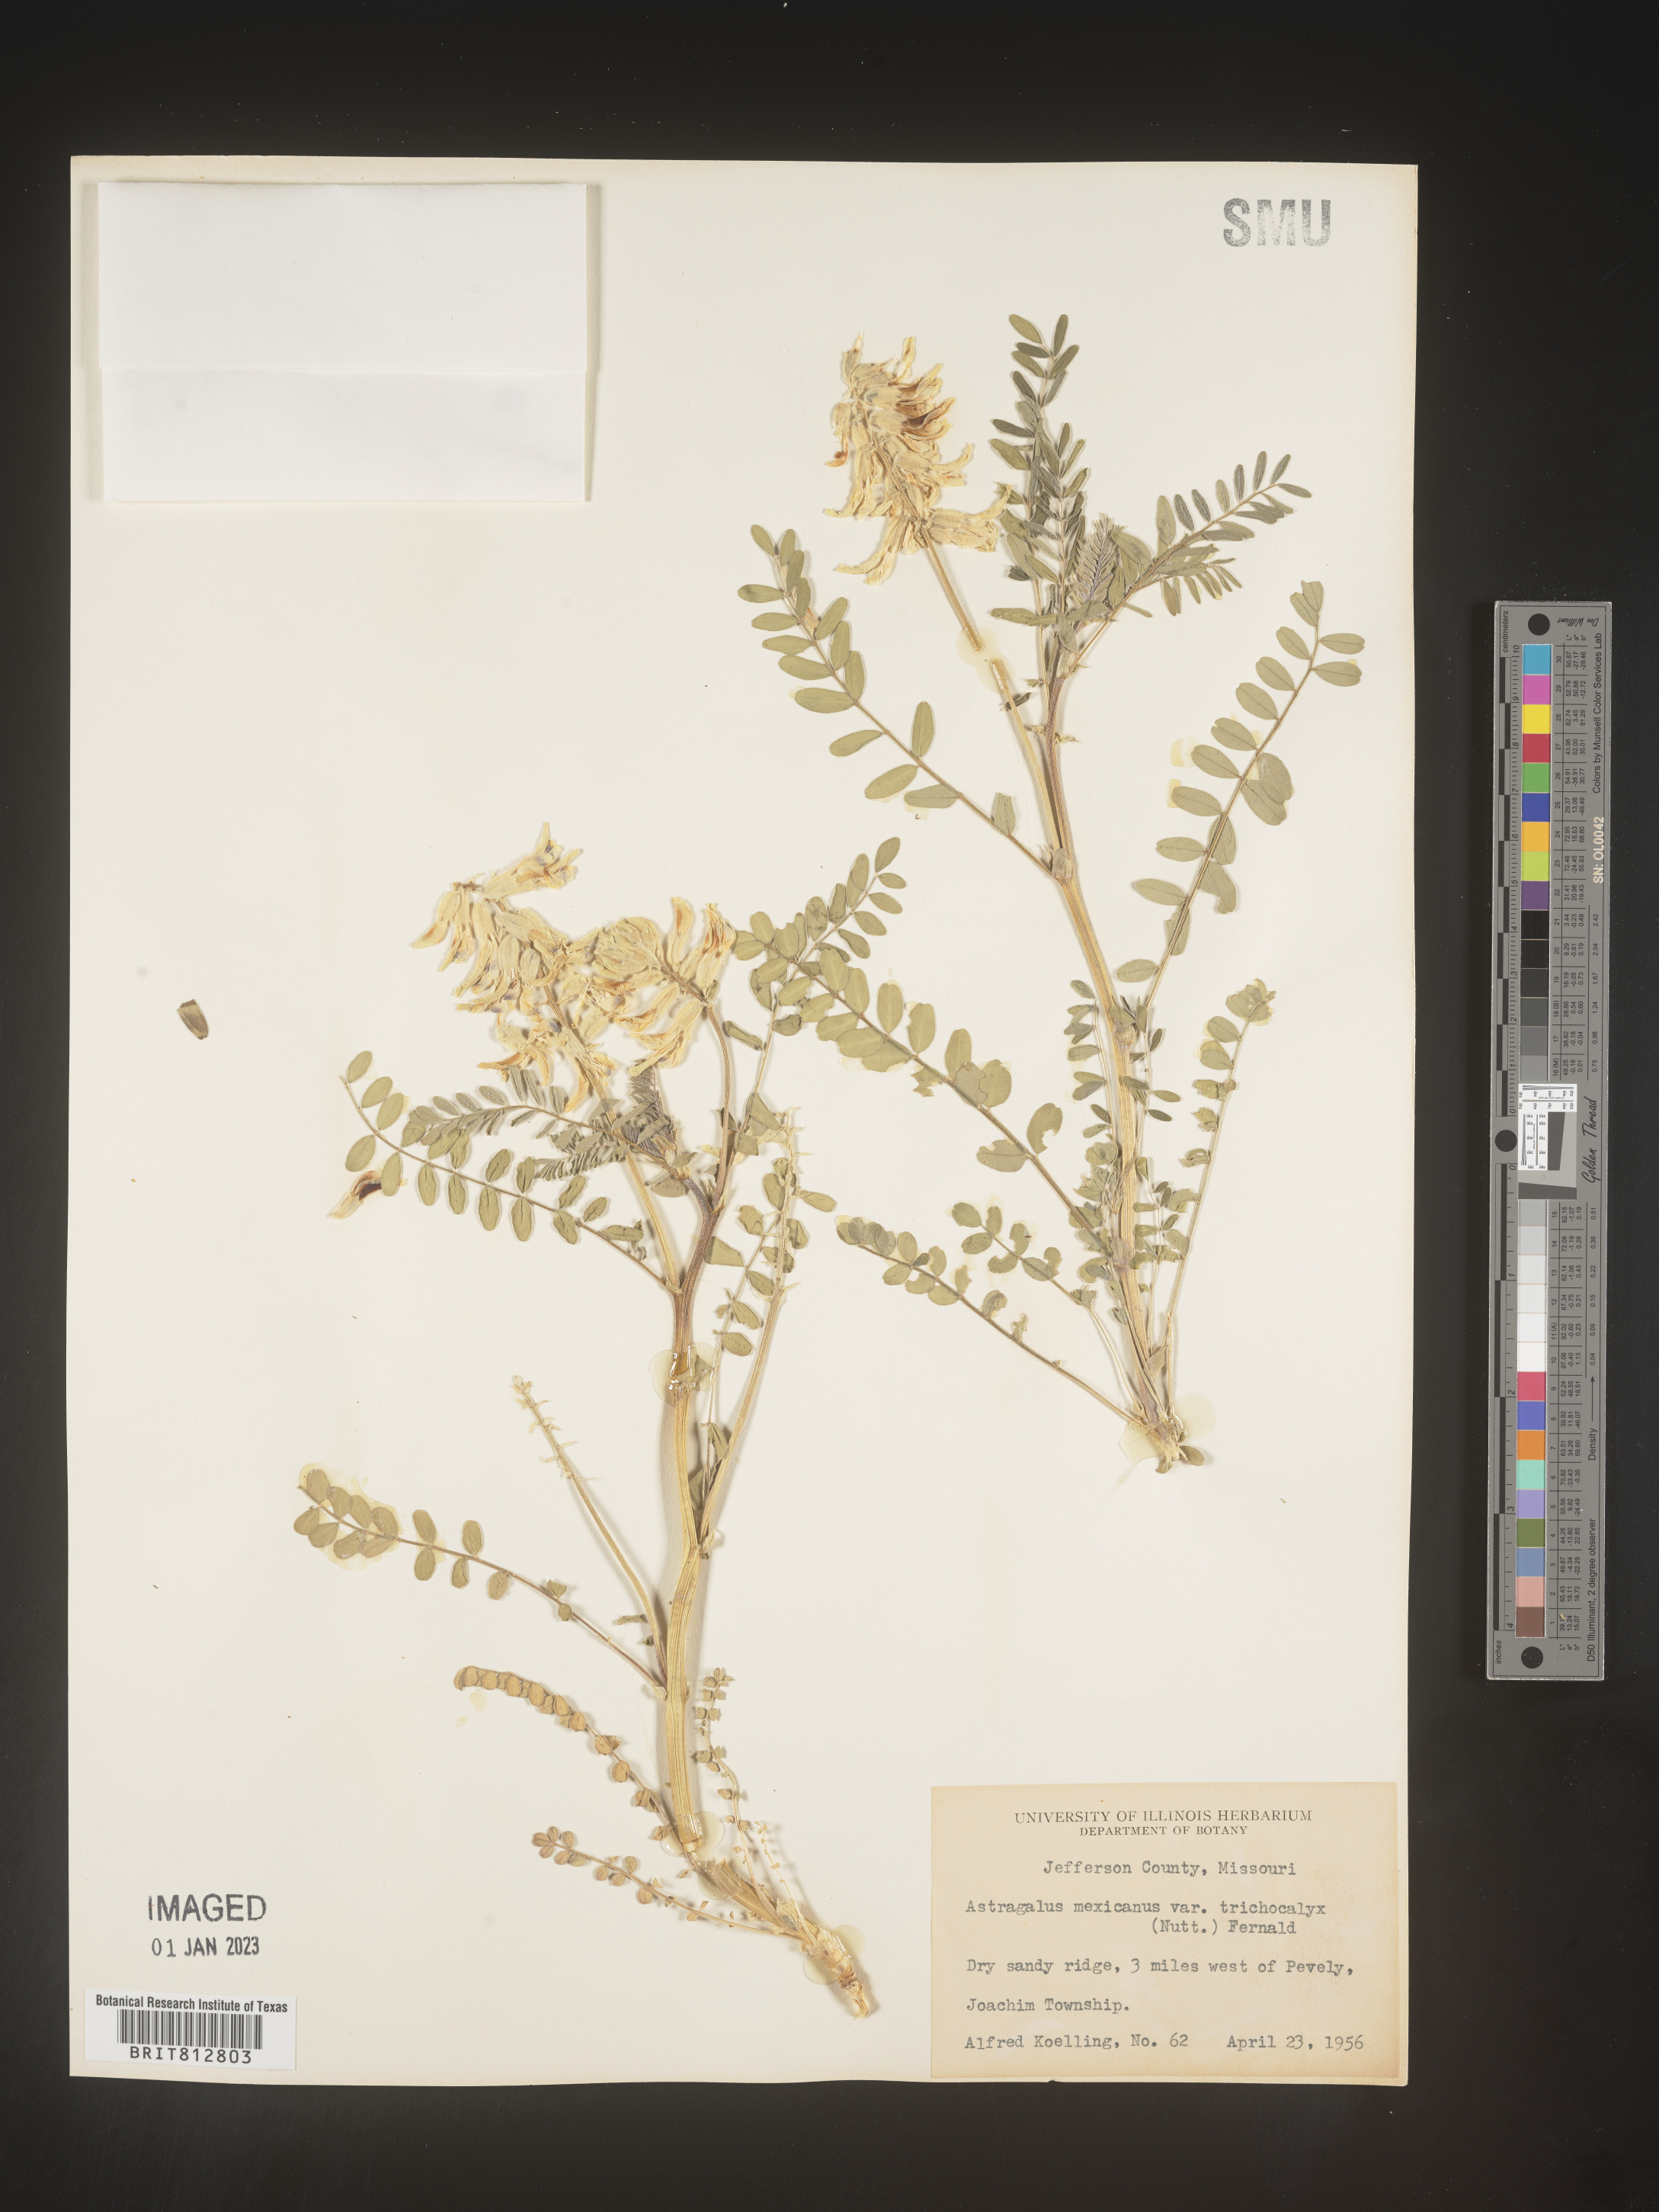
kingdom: Plantae
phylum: Tracheophyta
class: Magnoliopsida
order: Fabales
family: Fabaceae
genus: Astragalus
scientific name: Astragalus petropolitanus
